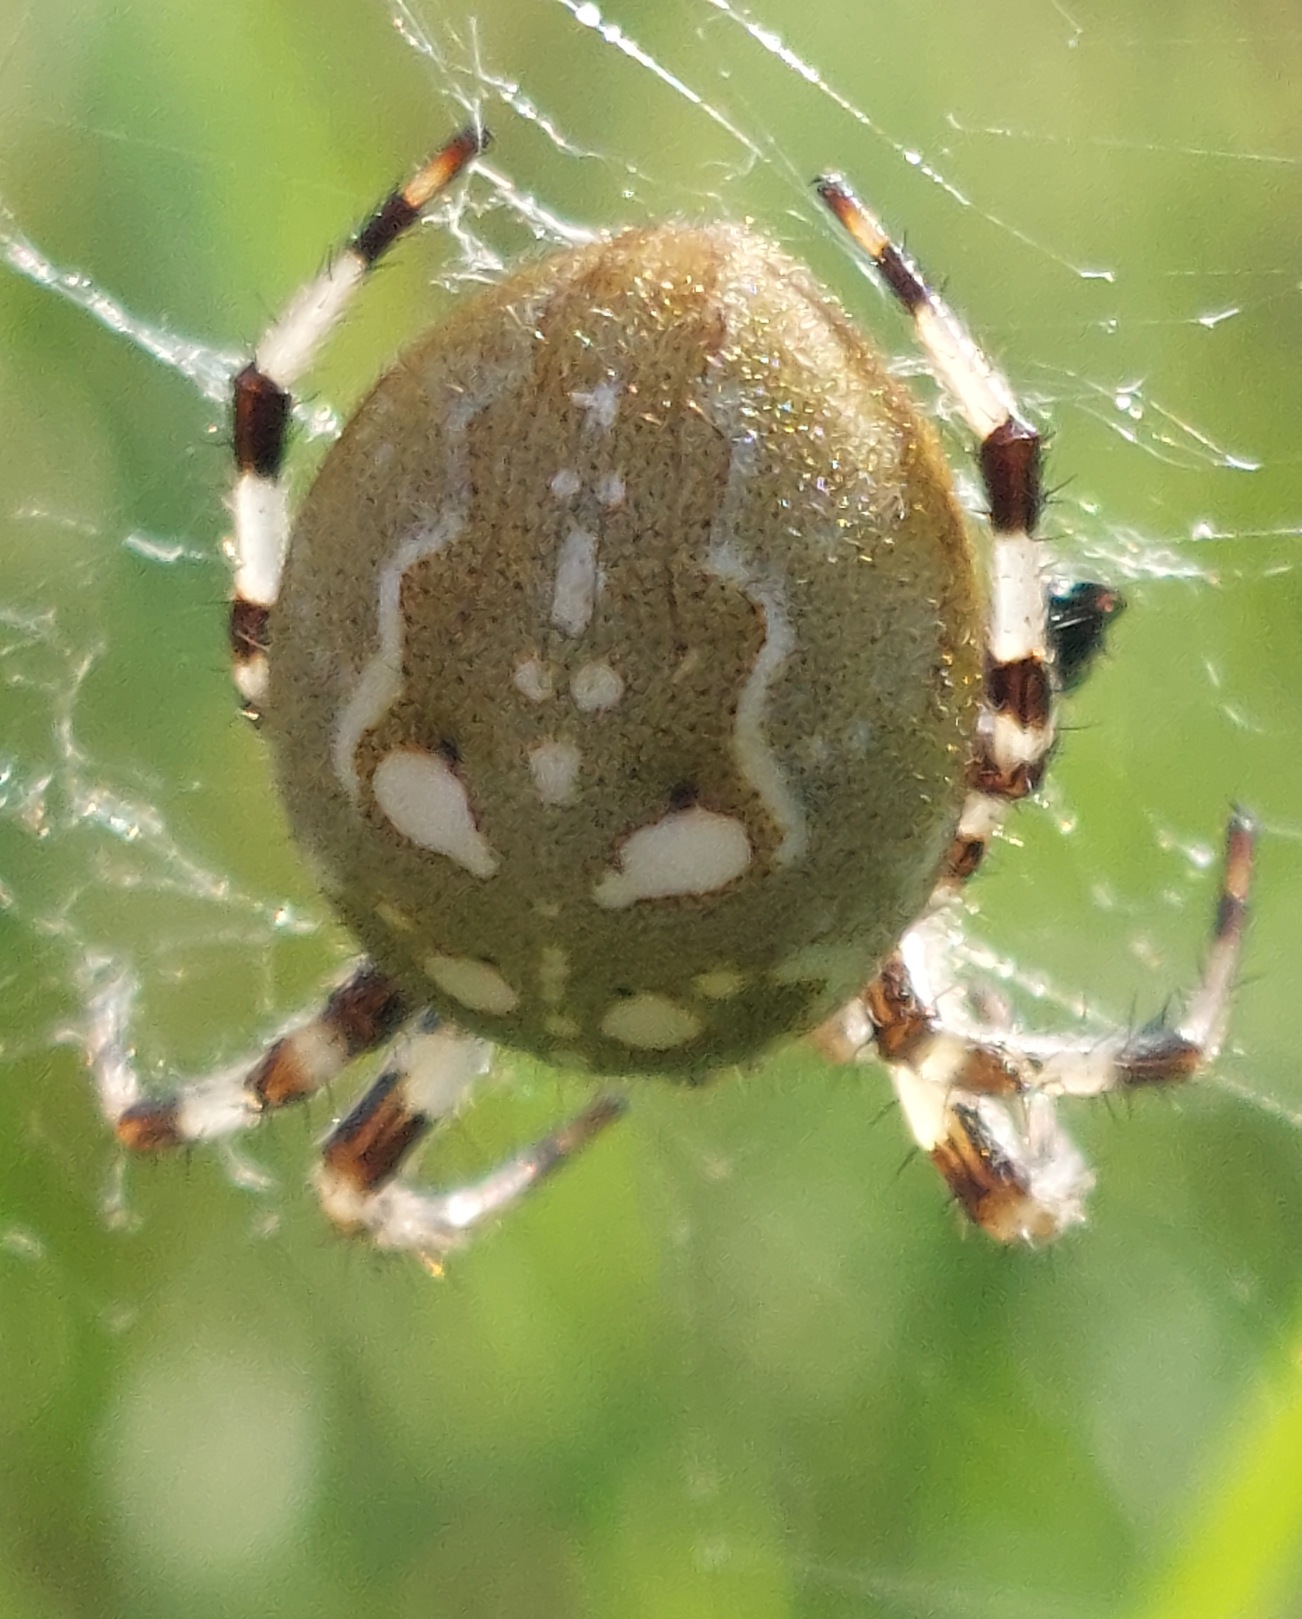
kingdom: Animalia
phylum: Arthropoda
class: Arachnida
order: Araneae
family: Araneidae
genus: Araneus
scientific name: Araneus quadratus
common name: Kvadratedderkop
